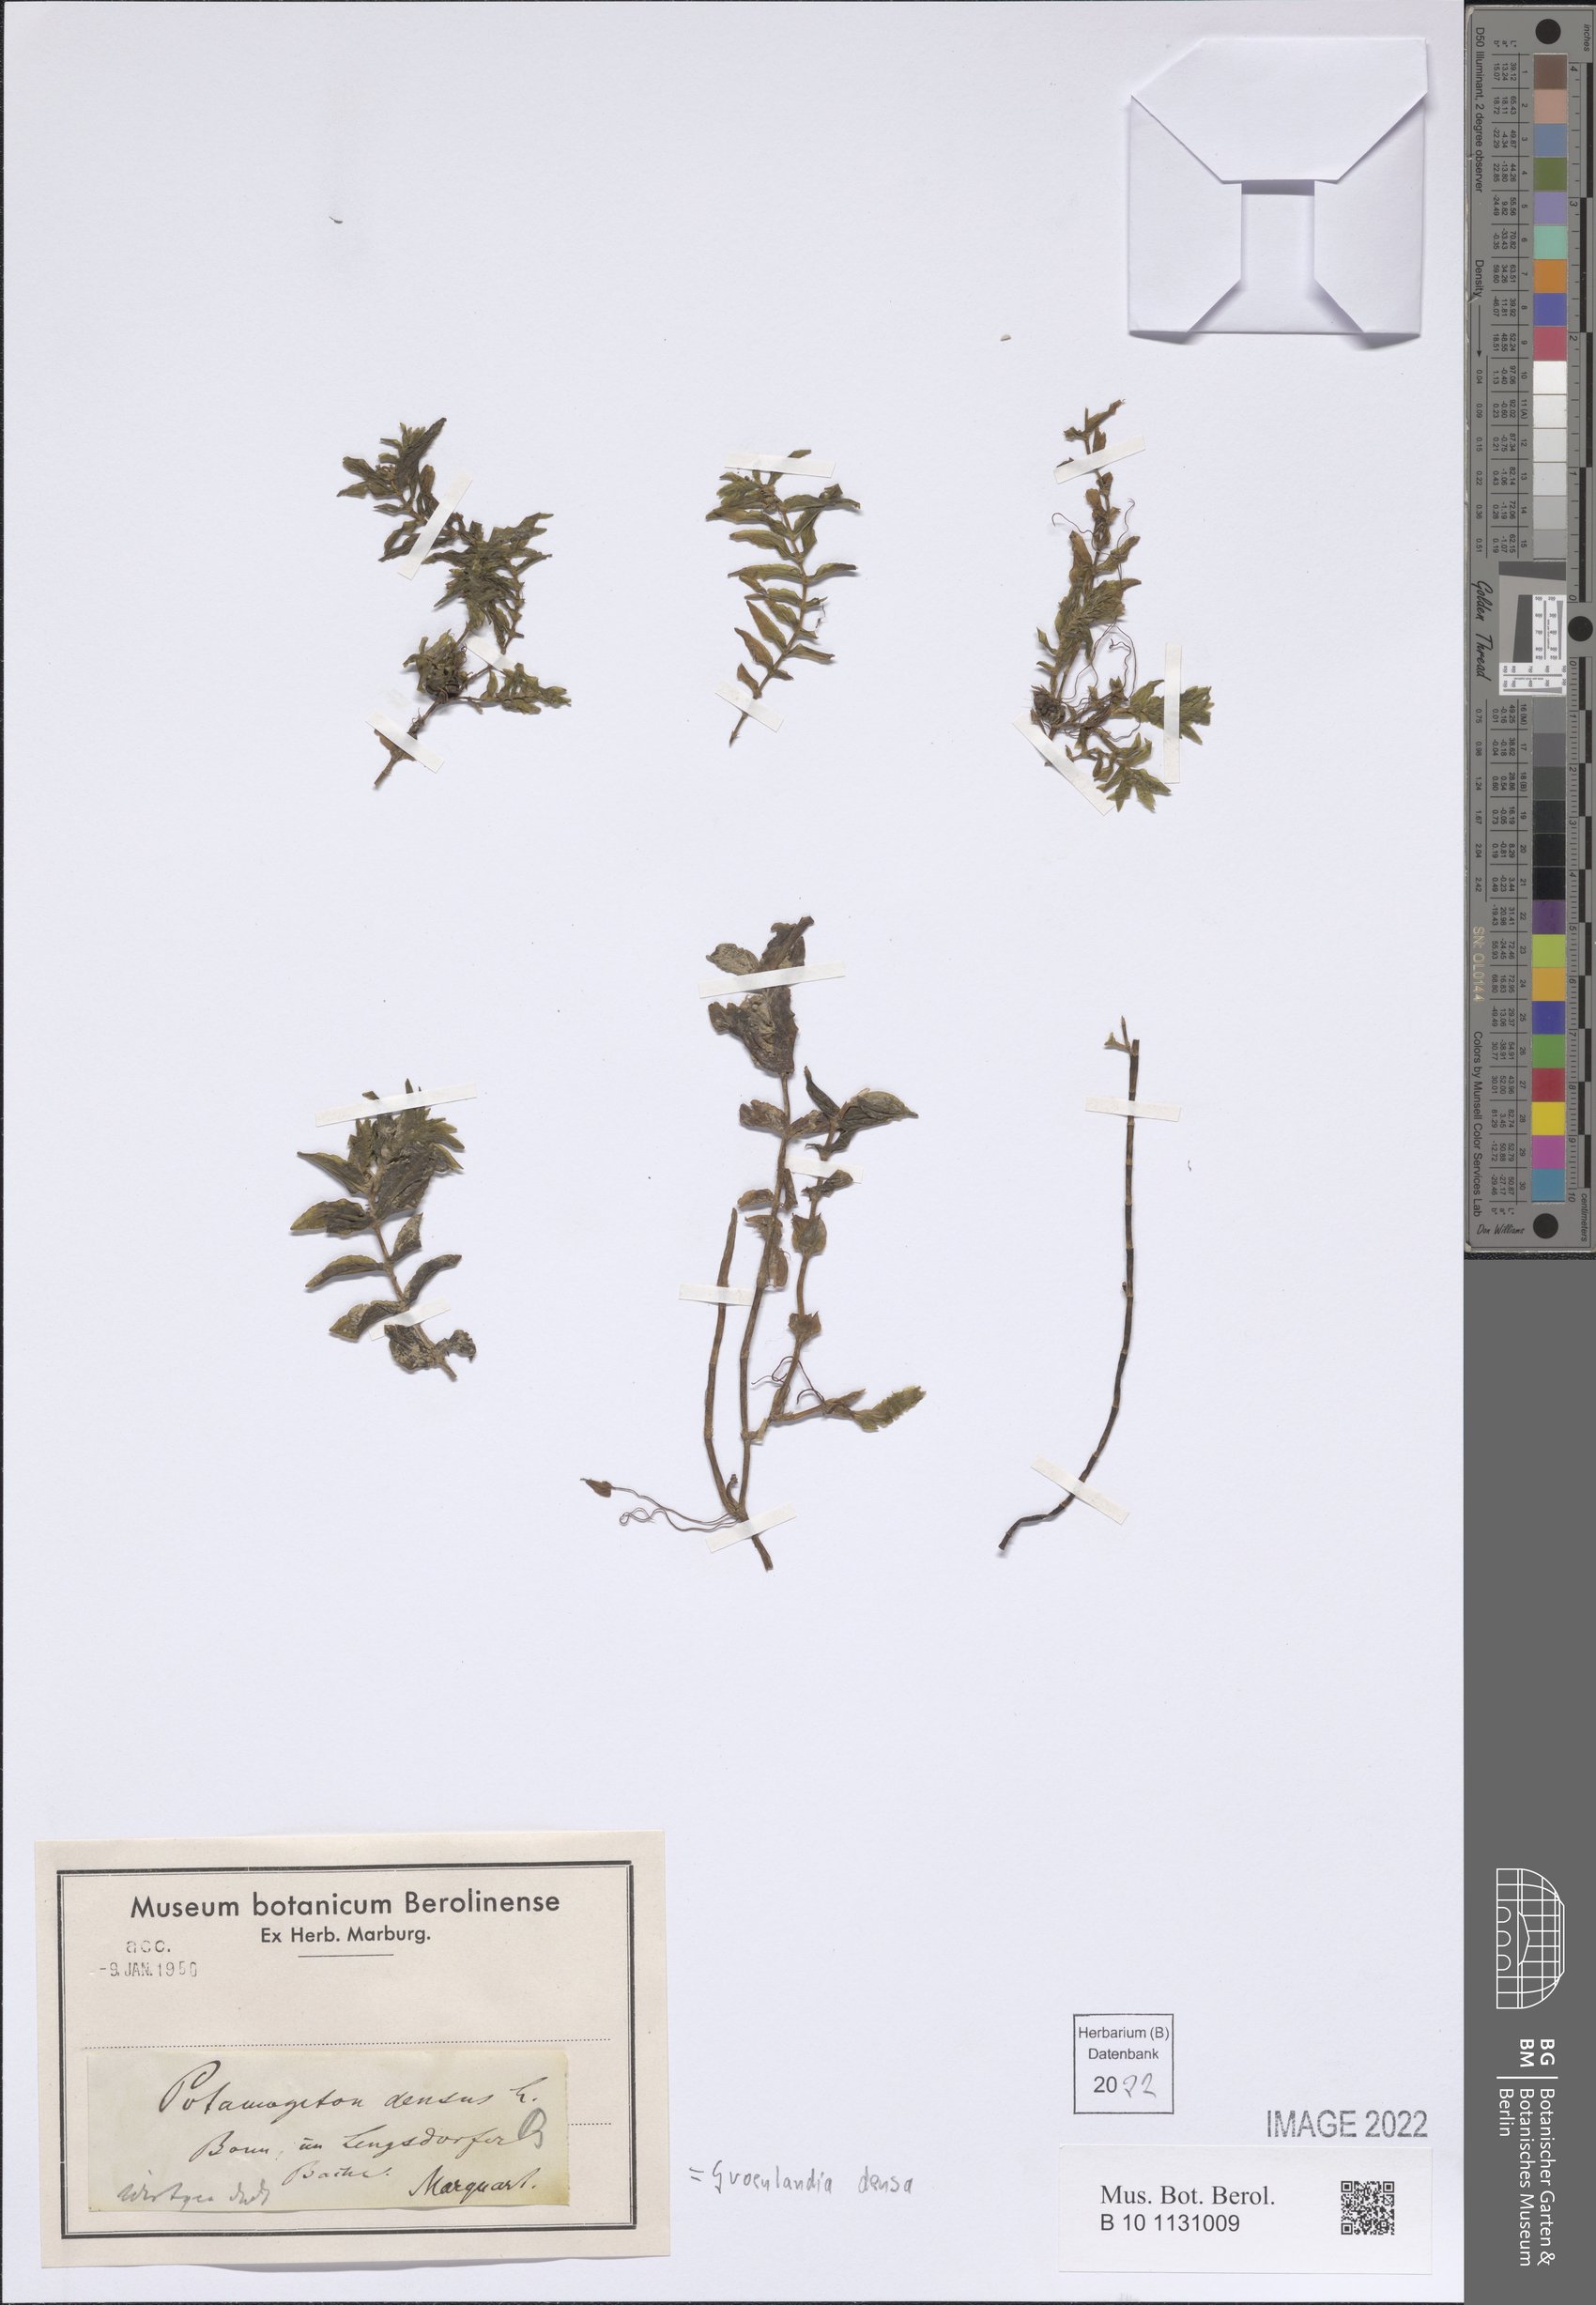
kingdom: Plantae
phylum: Tracheophyta
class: Liliopsida
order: Alismatales
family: Potamogetonaceae
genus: Groenlandia
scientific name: Groenlandia densa
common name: Opposite-leaved pondweed
